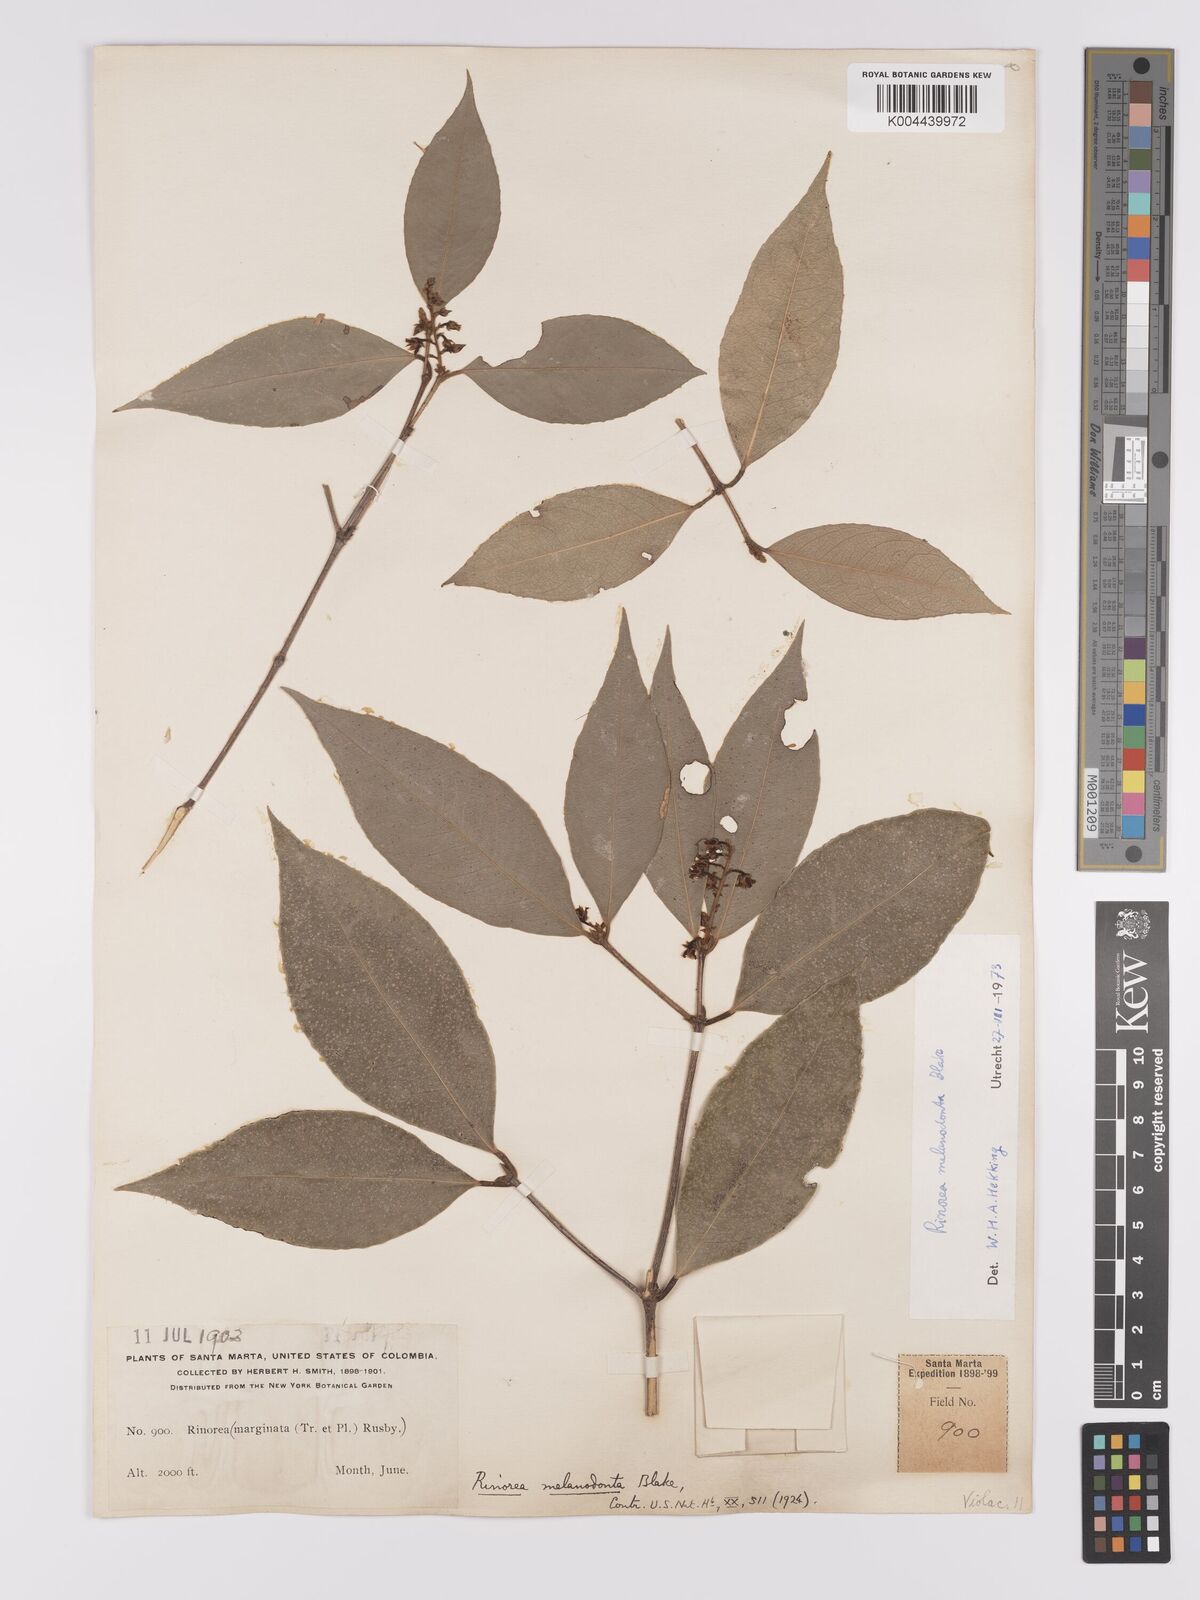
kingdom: Plantae
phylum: Tracheophyta
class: Magnoliopsida
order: Malpighiales
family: Violaceae
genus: Rinorea
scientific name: Rinorea melanodonta
